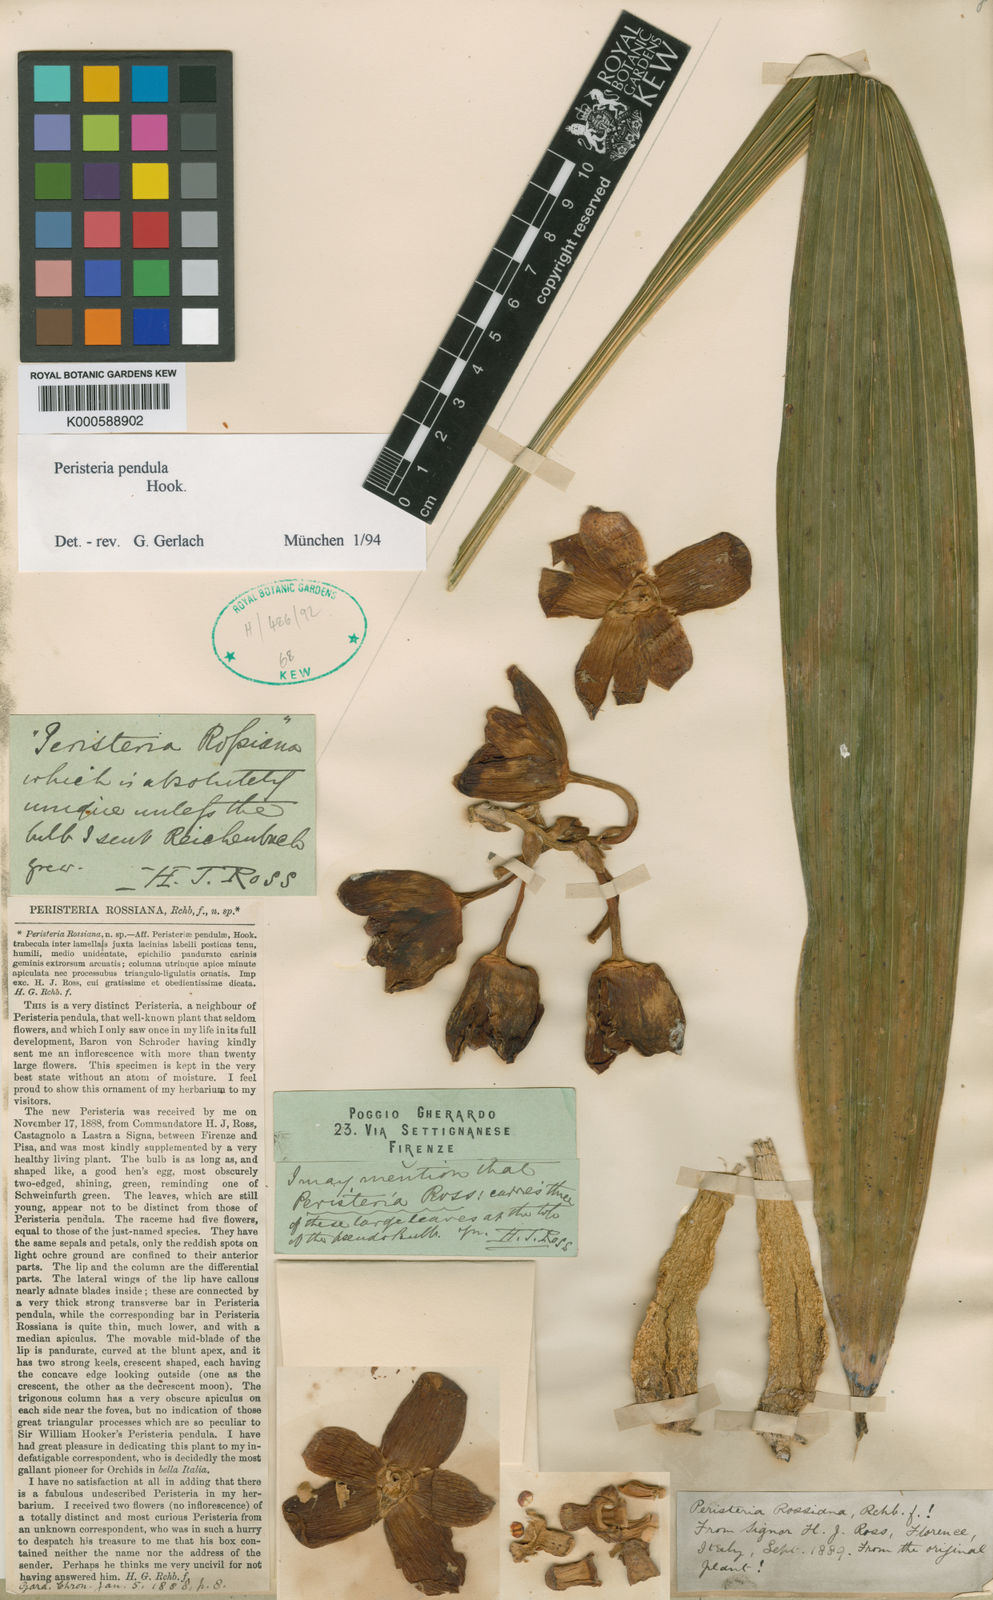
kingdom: Plantae
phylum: Tracheophyta
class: Liliopsida
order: Asparagales
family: Orchidaceae
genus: Peristeria
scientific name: Peristeria pendula
